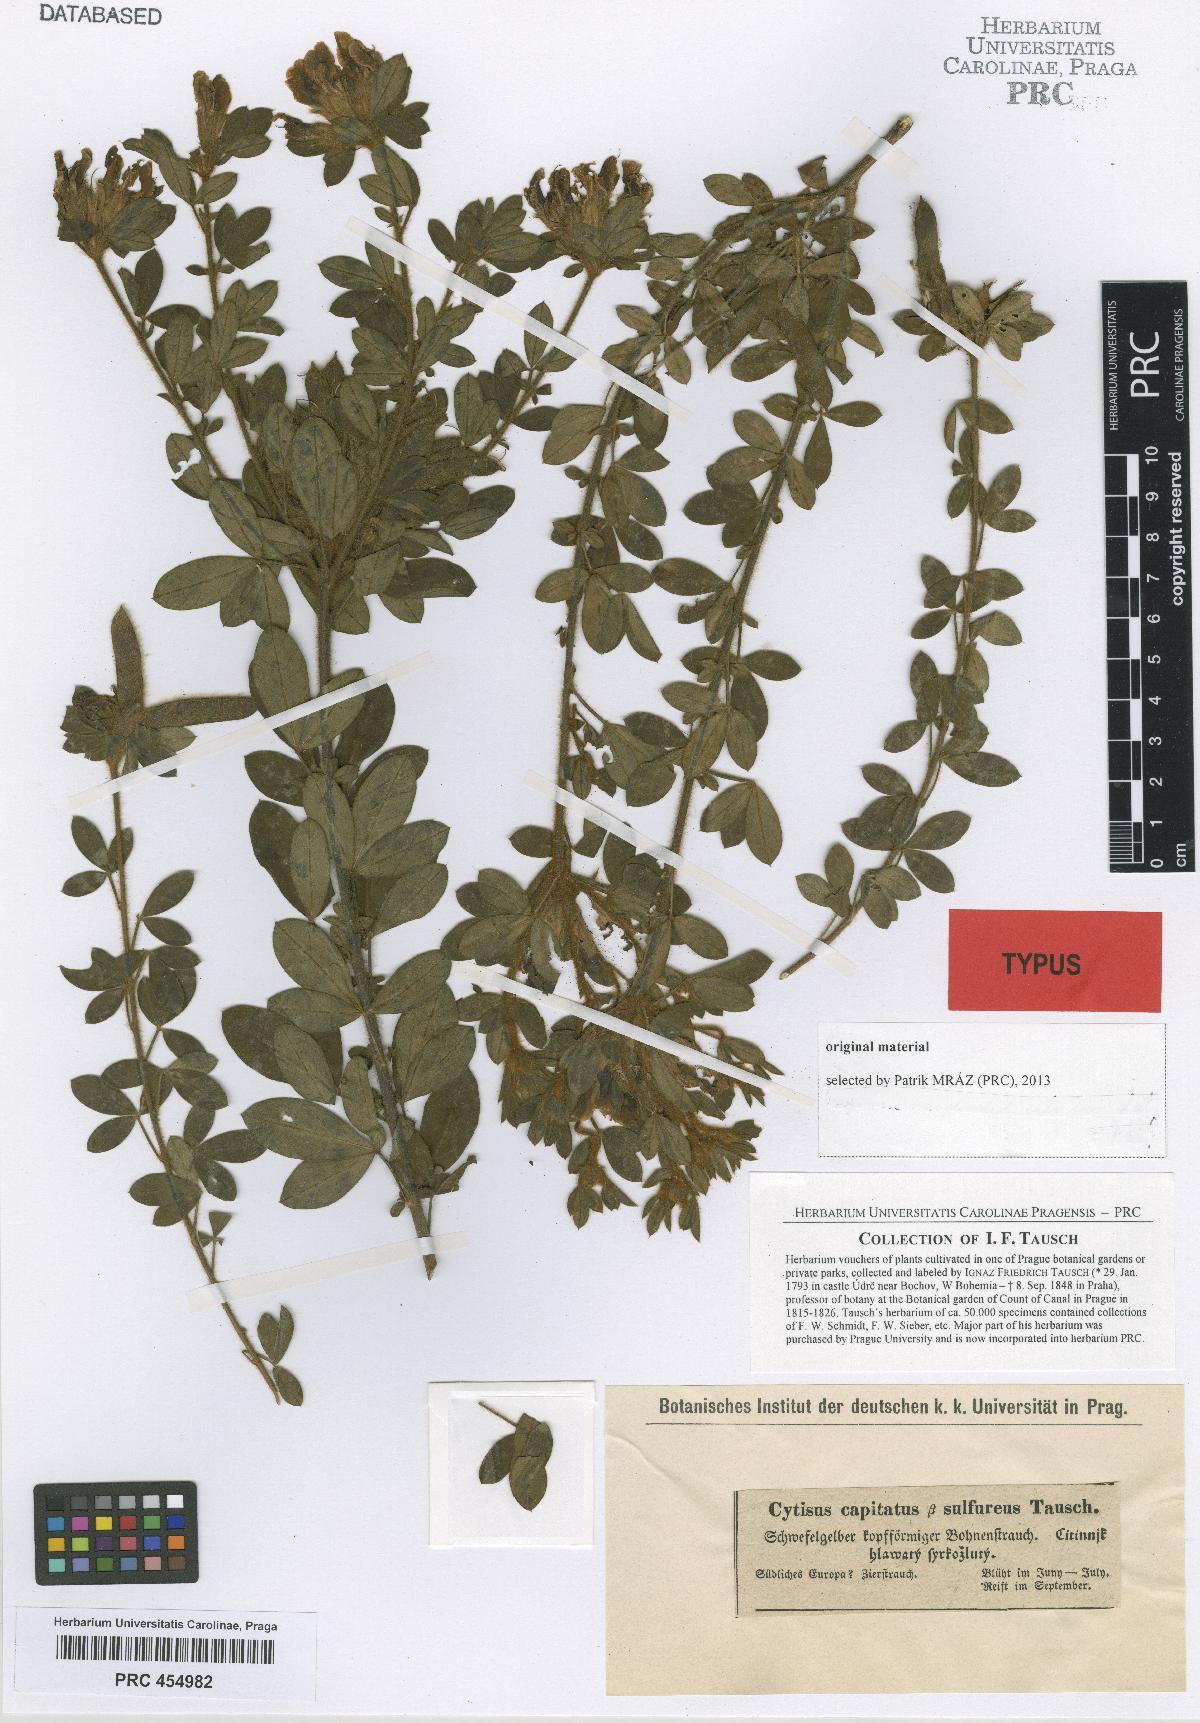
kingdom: Plantae
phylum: Tracheophyta
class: Magnoliopsida
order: Fabales
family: Fabaceae
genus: Chamaecytisus
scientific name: Chamaecytisus hirsutus
